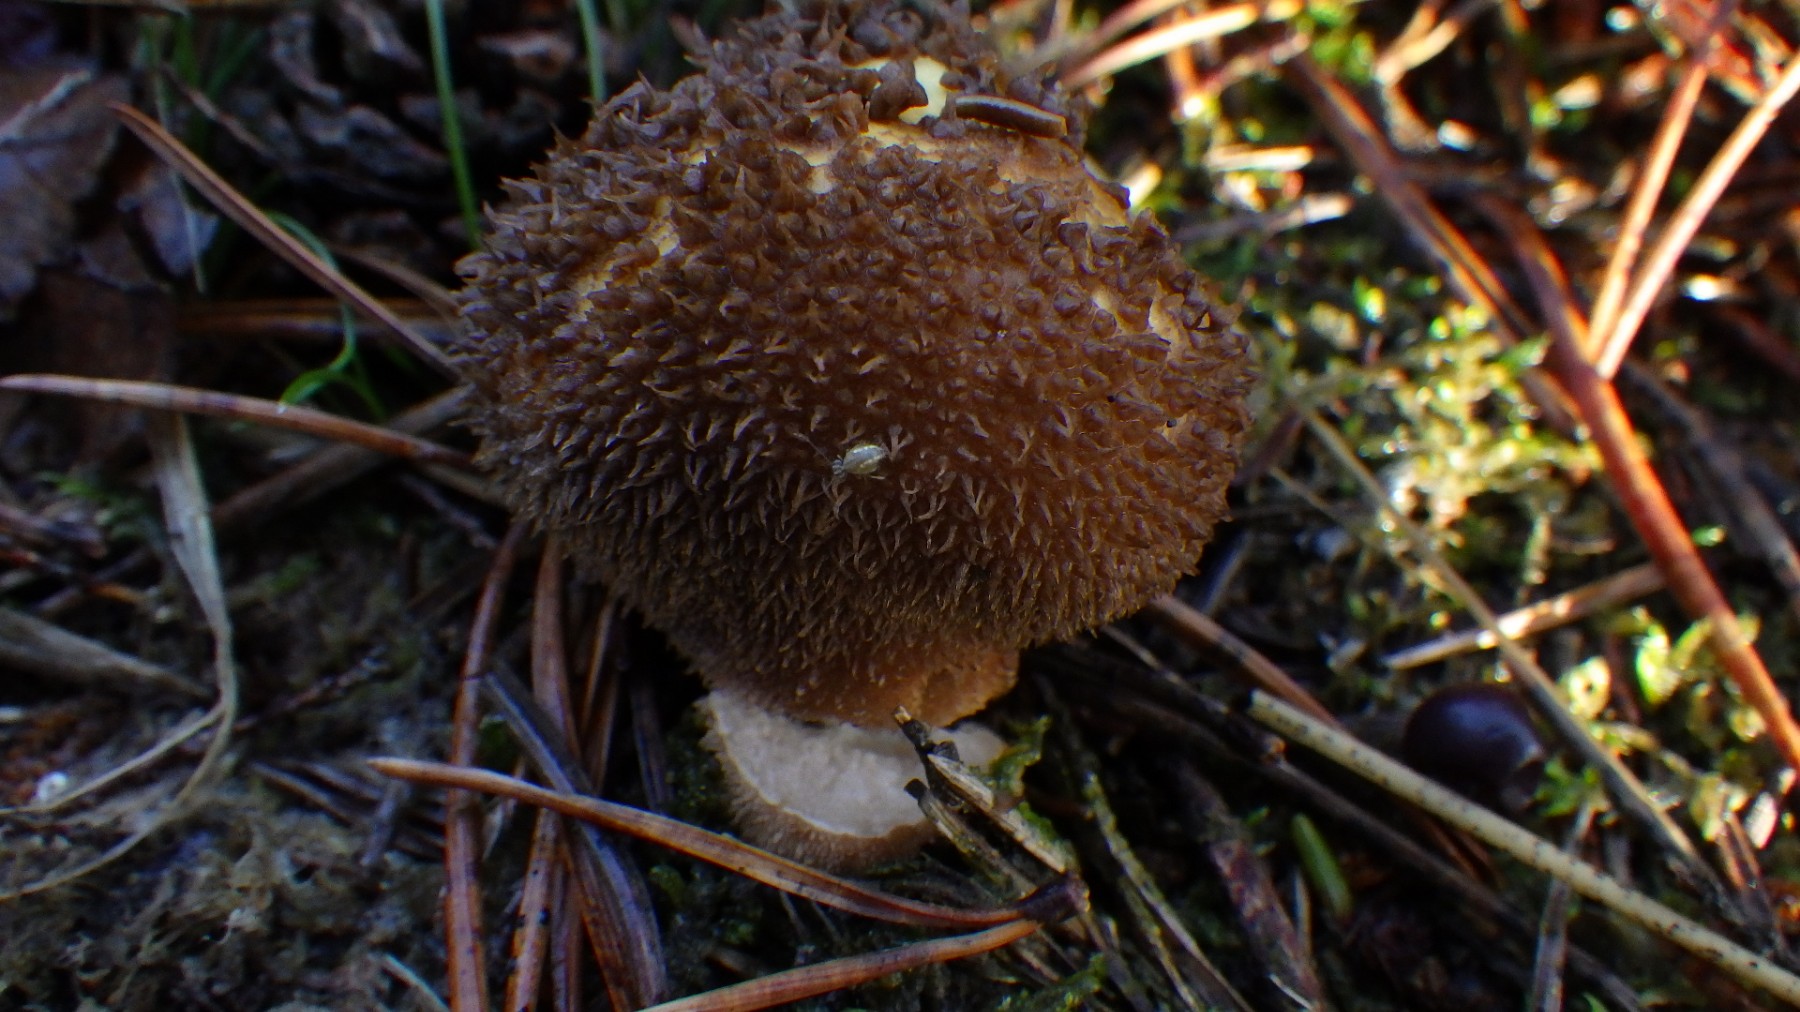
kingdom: Fungi
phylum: Basidiomycota
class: Agaricomycetes
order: Agaricales
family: Lycoperdaceae
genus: Lycoperdon
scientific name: Lycoperdon nigrescens
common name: sortagtig støvbold
